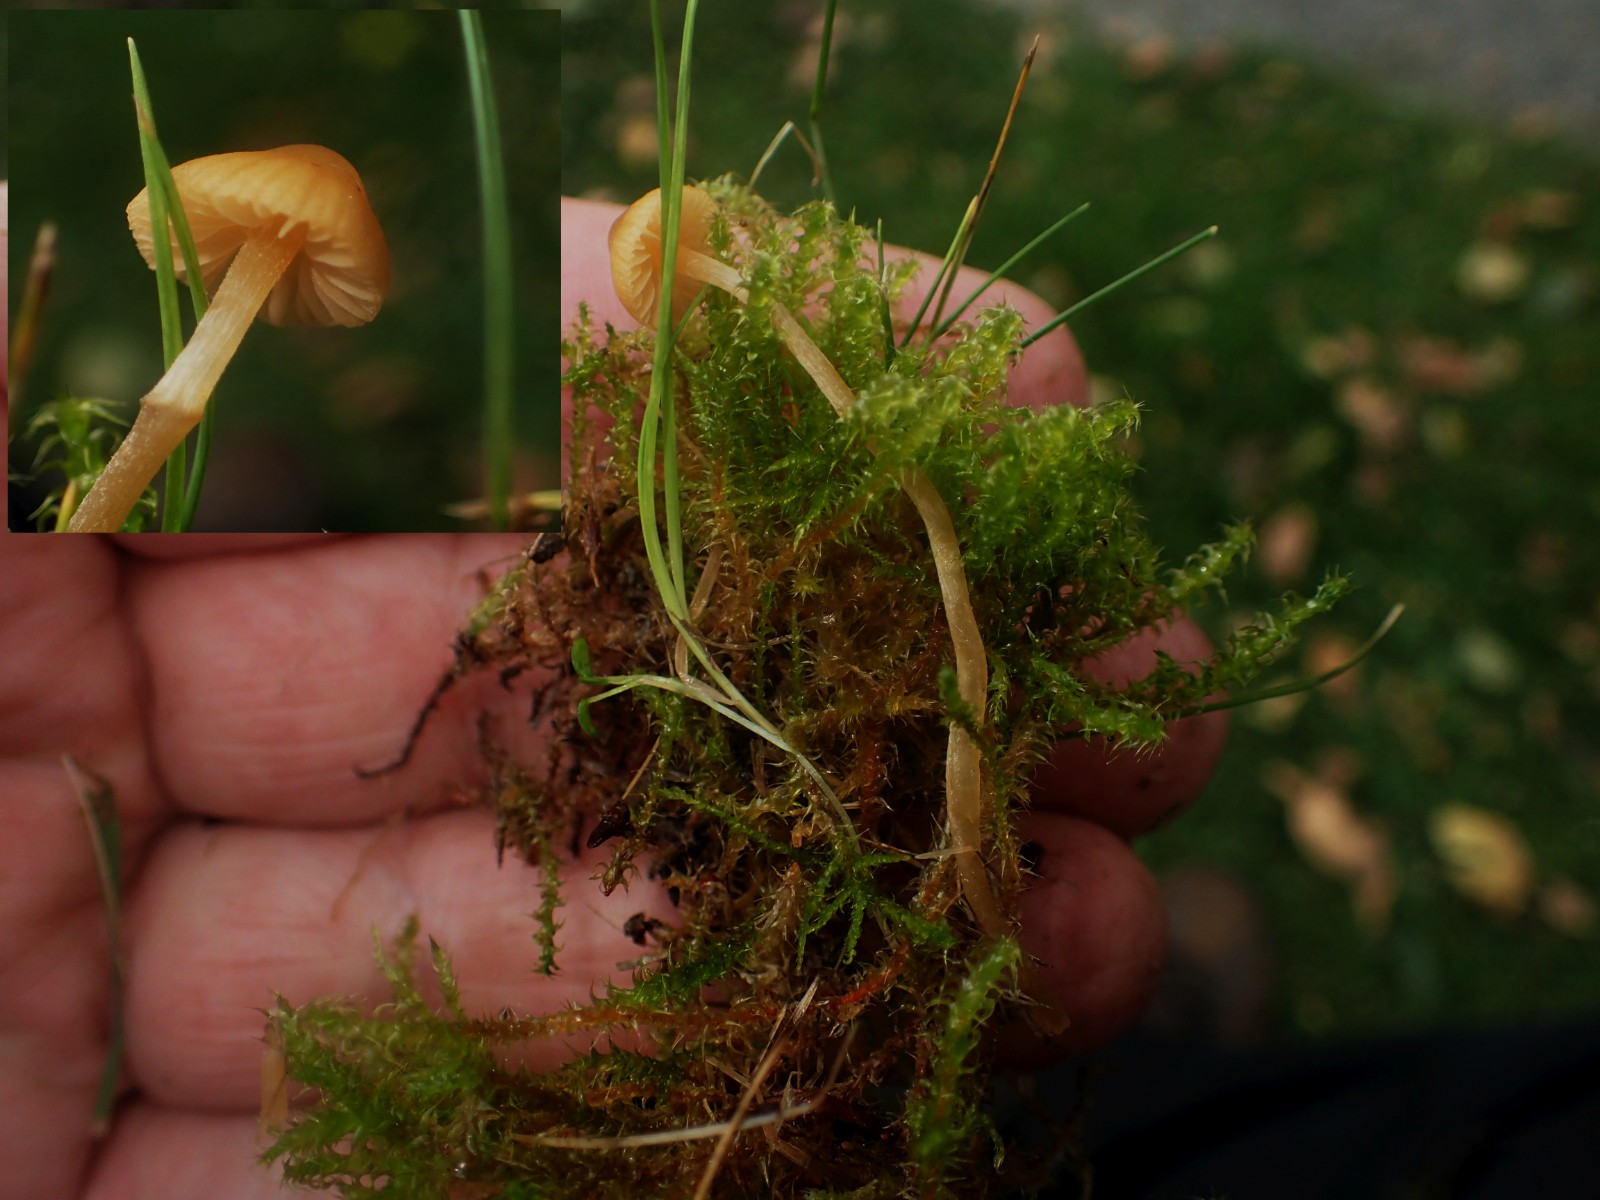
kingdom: Fungi
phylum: Basidiomycota
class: Agaricomycetes
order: Agaricales
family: Hymenogastraceae
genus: Galerina
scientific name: Galerina
